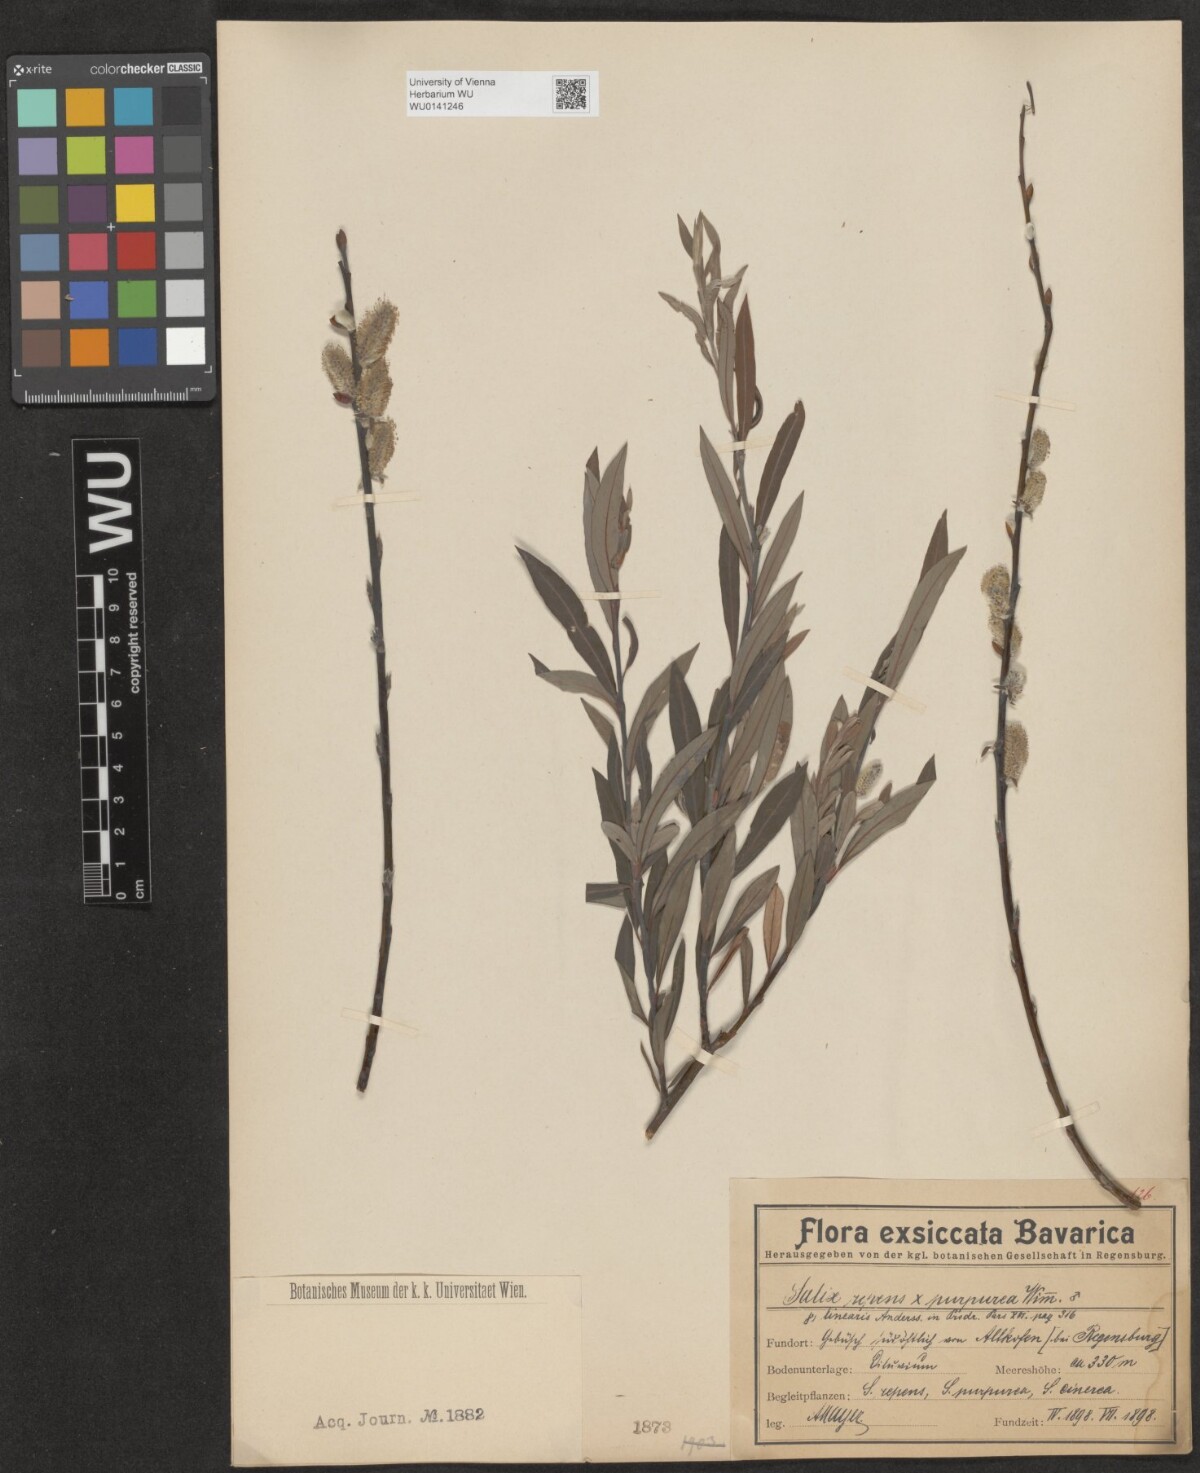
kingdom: Plantae
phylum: Tracheophyta
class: Magnoliopsida
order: Malpighiales
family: Salicaceae
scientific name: Salicaceae
